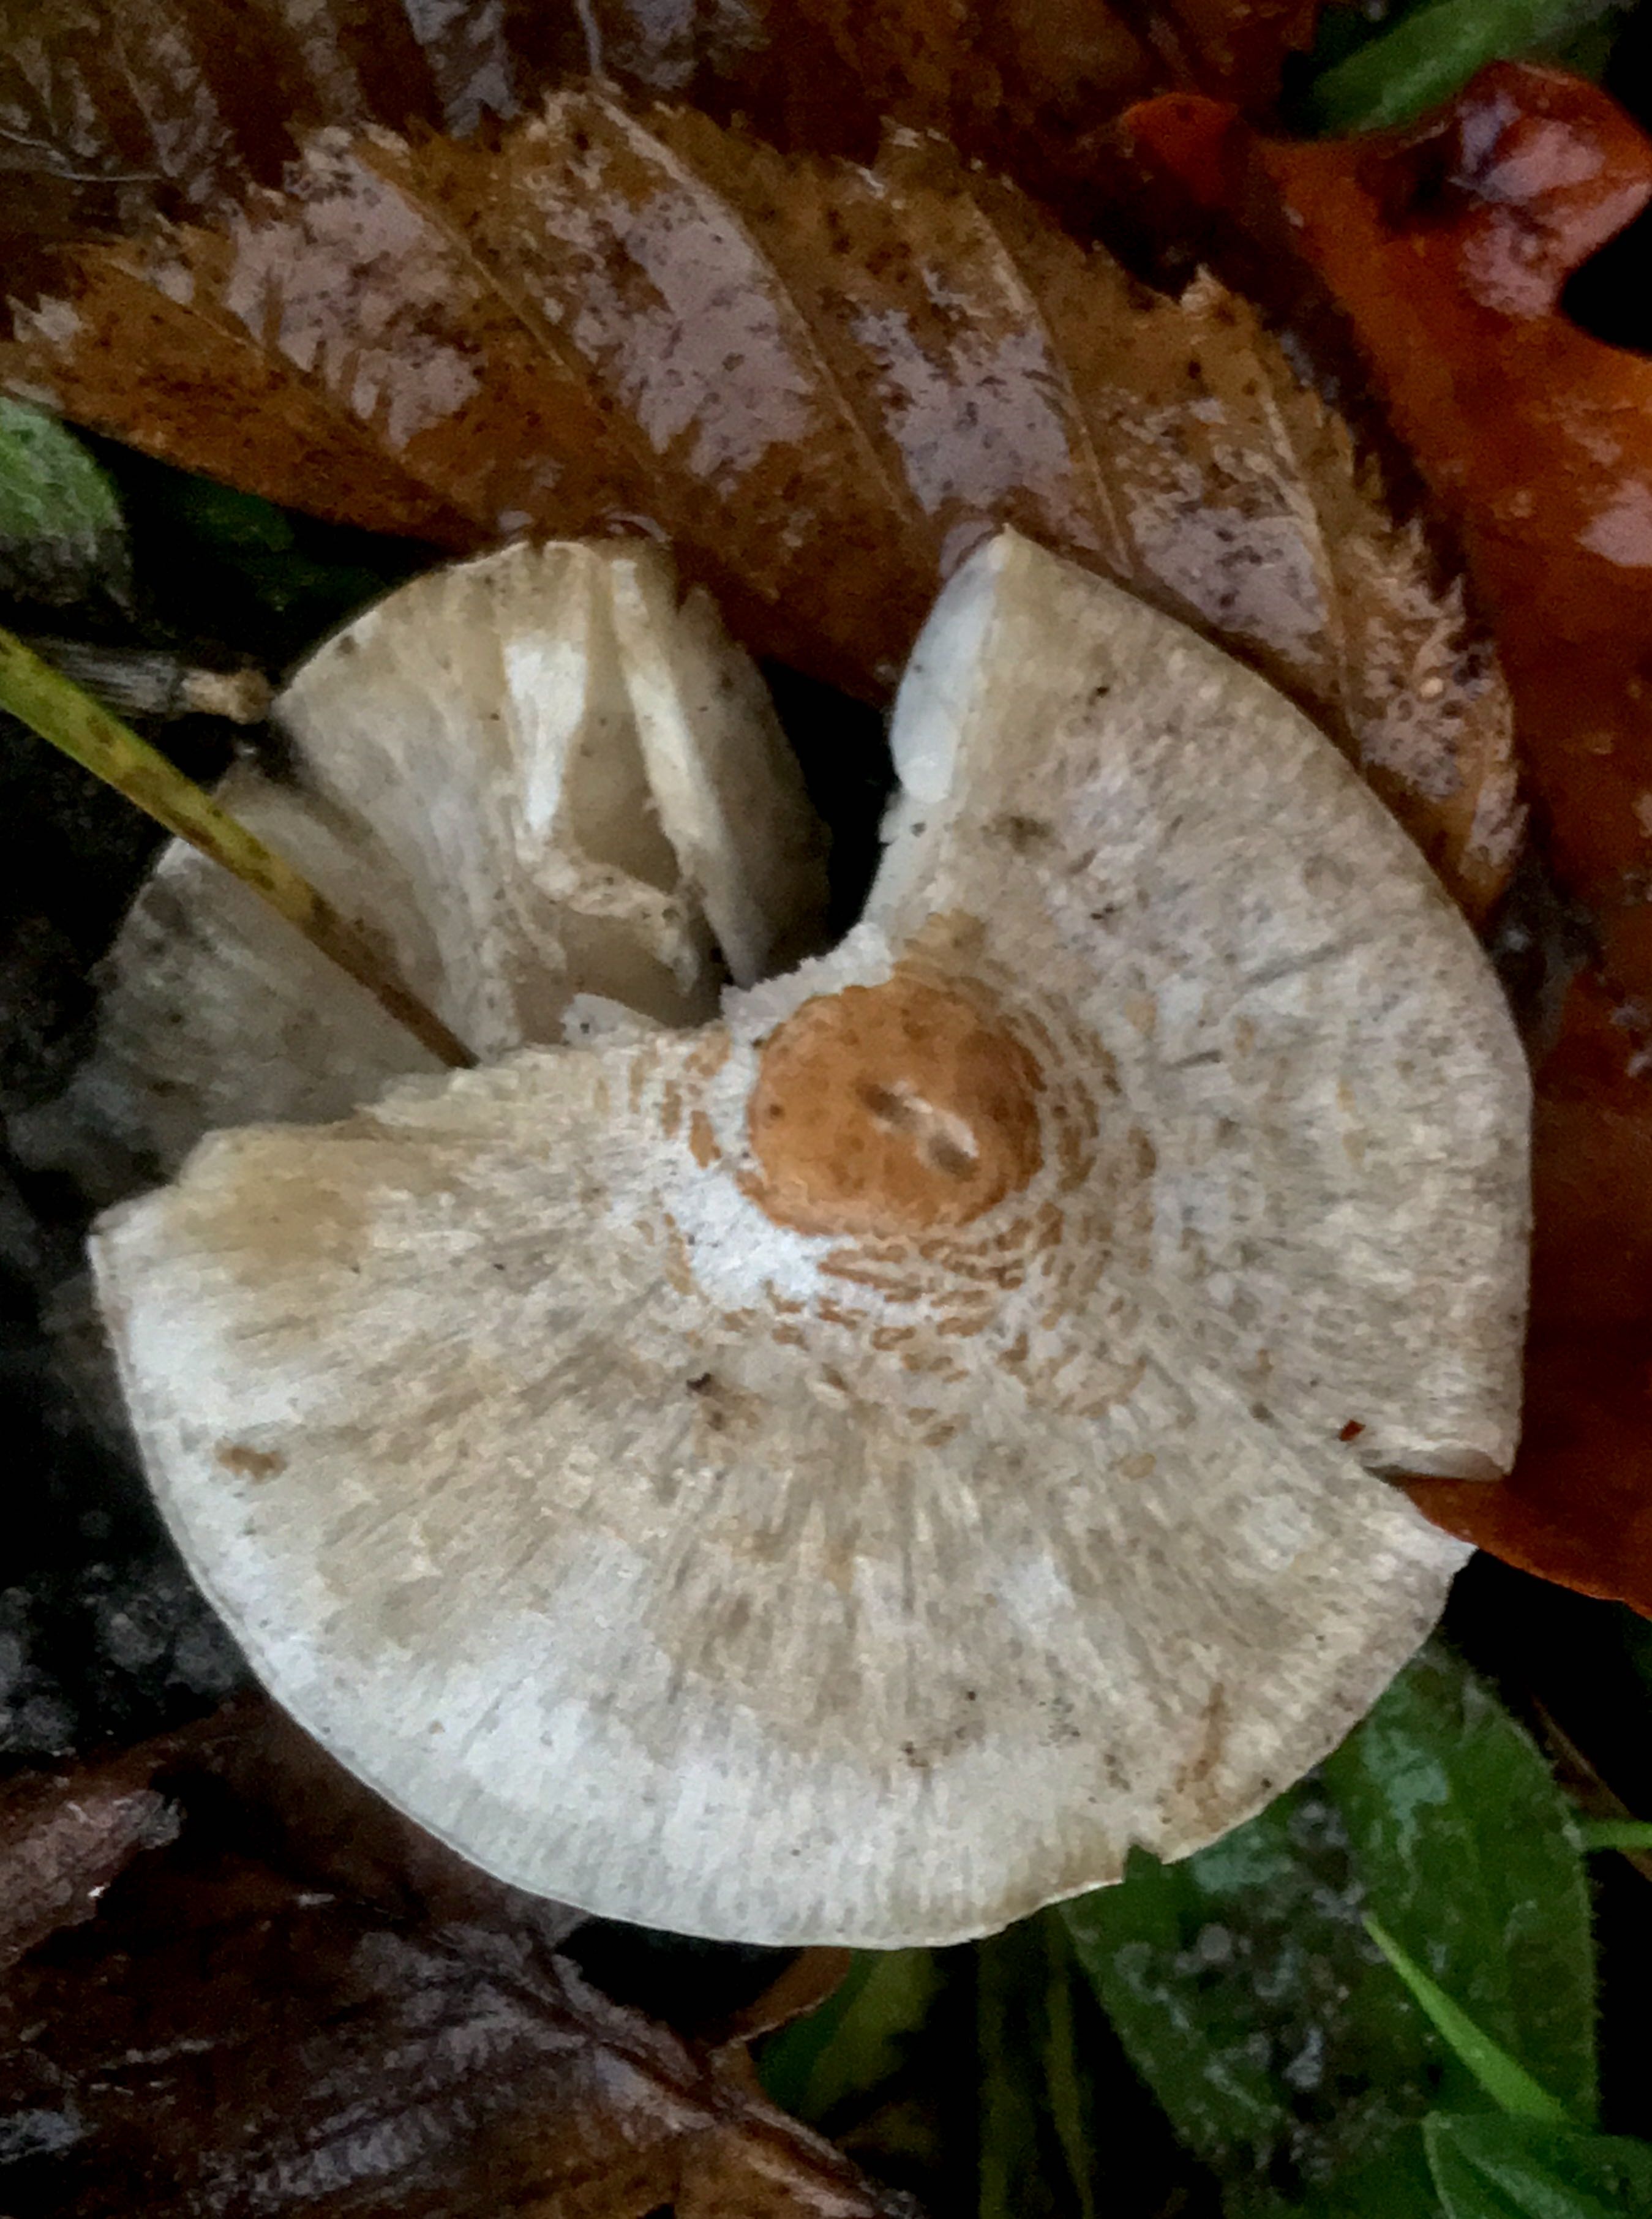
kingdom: Fungi
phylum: Basidiomycota
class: Agaricomycetes
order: Agaricales
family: Agaricaceae
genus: Lepiota
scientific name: Lepiota cristata
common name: stinkende parasolhat
